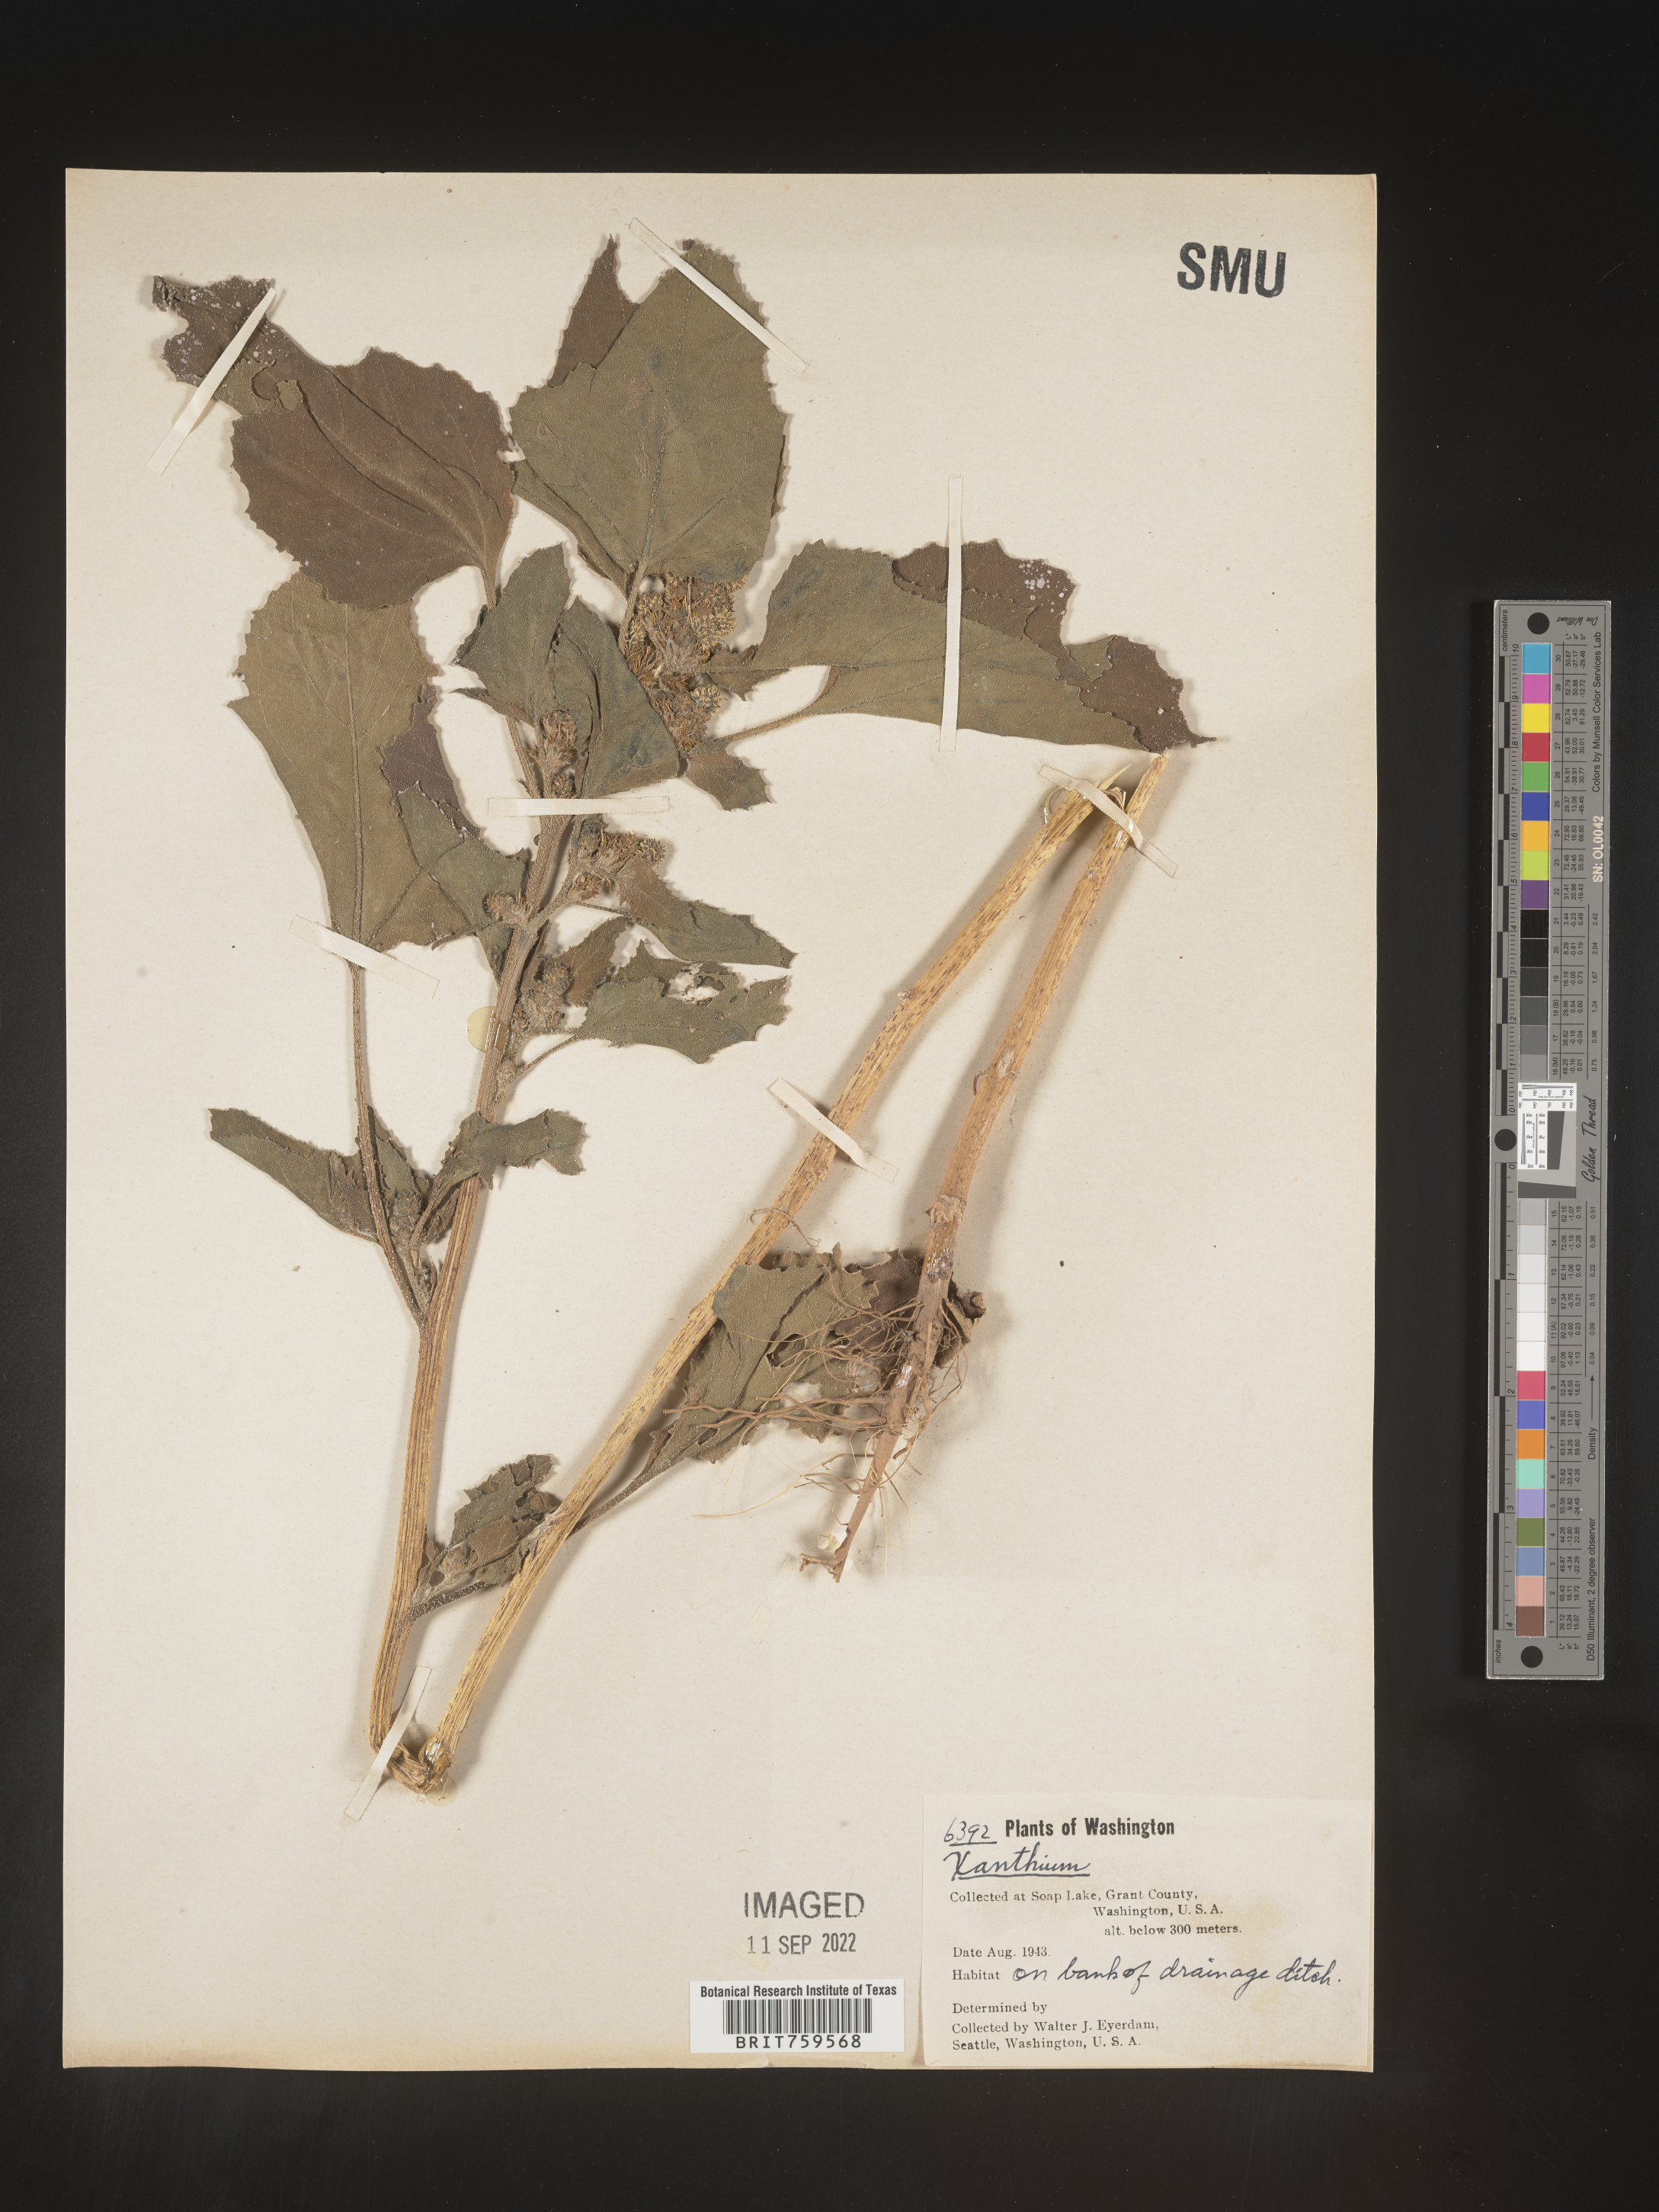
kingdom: Plantae
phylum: Tracheophyta
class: Magnoliopsida
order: Asterales
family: Asteraceae
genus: Xanthium
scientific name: Xanthium
